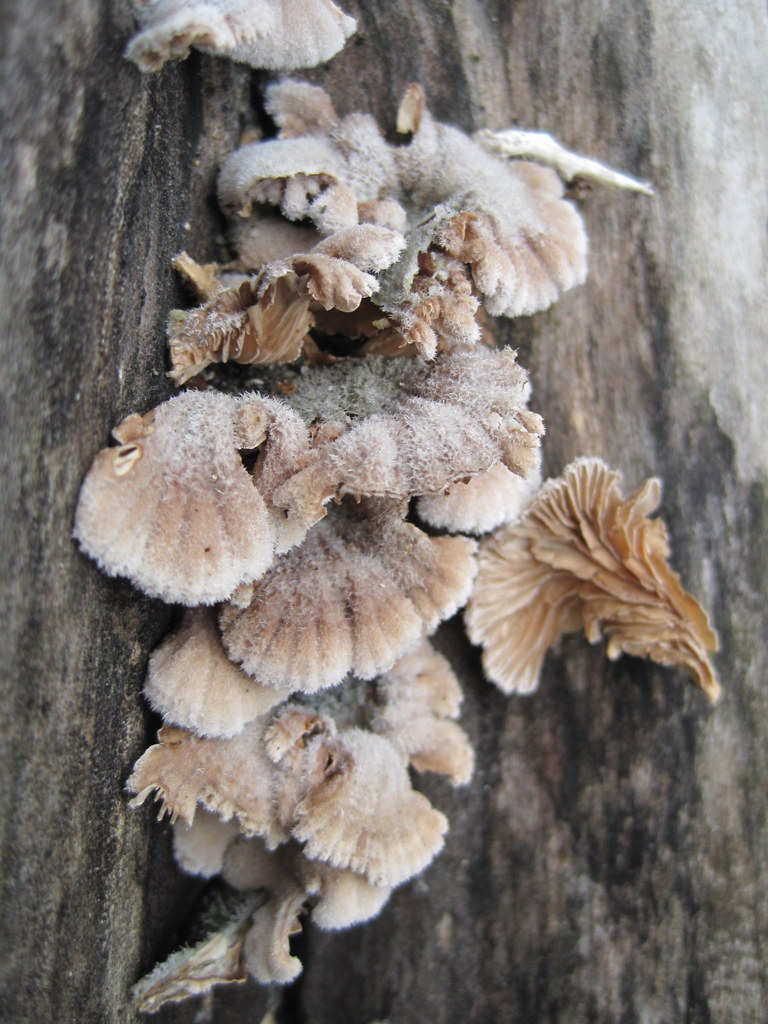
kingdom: Fungi
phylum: Basidiomycota
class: Agaricomycetes
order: Agaricales
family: Schizophyllaceae
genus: Schizophyllum
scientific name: Schizophyllum commune
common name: kløvblad
